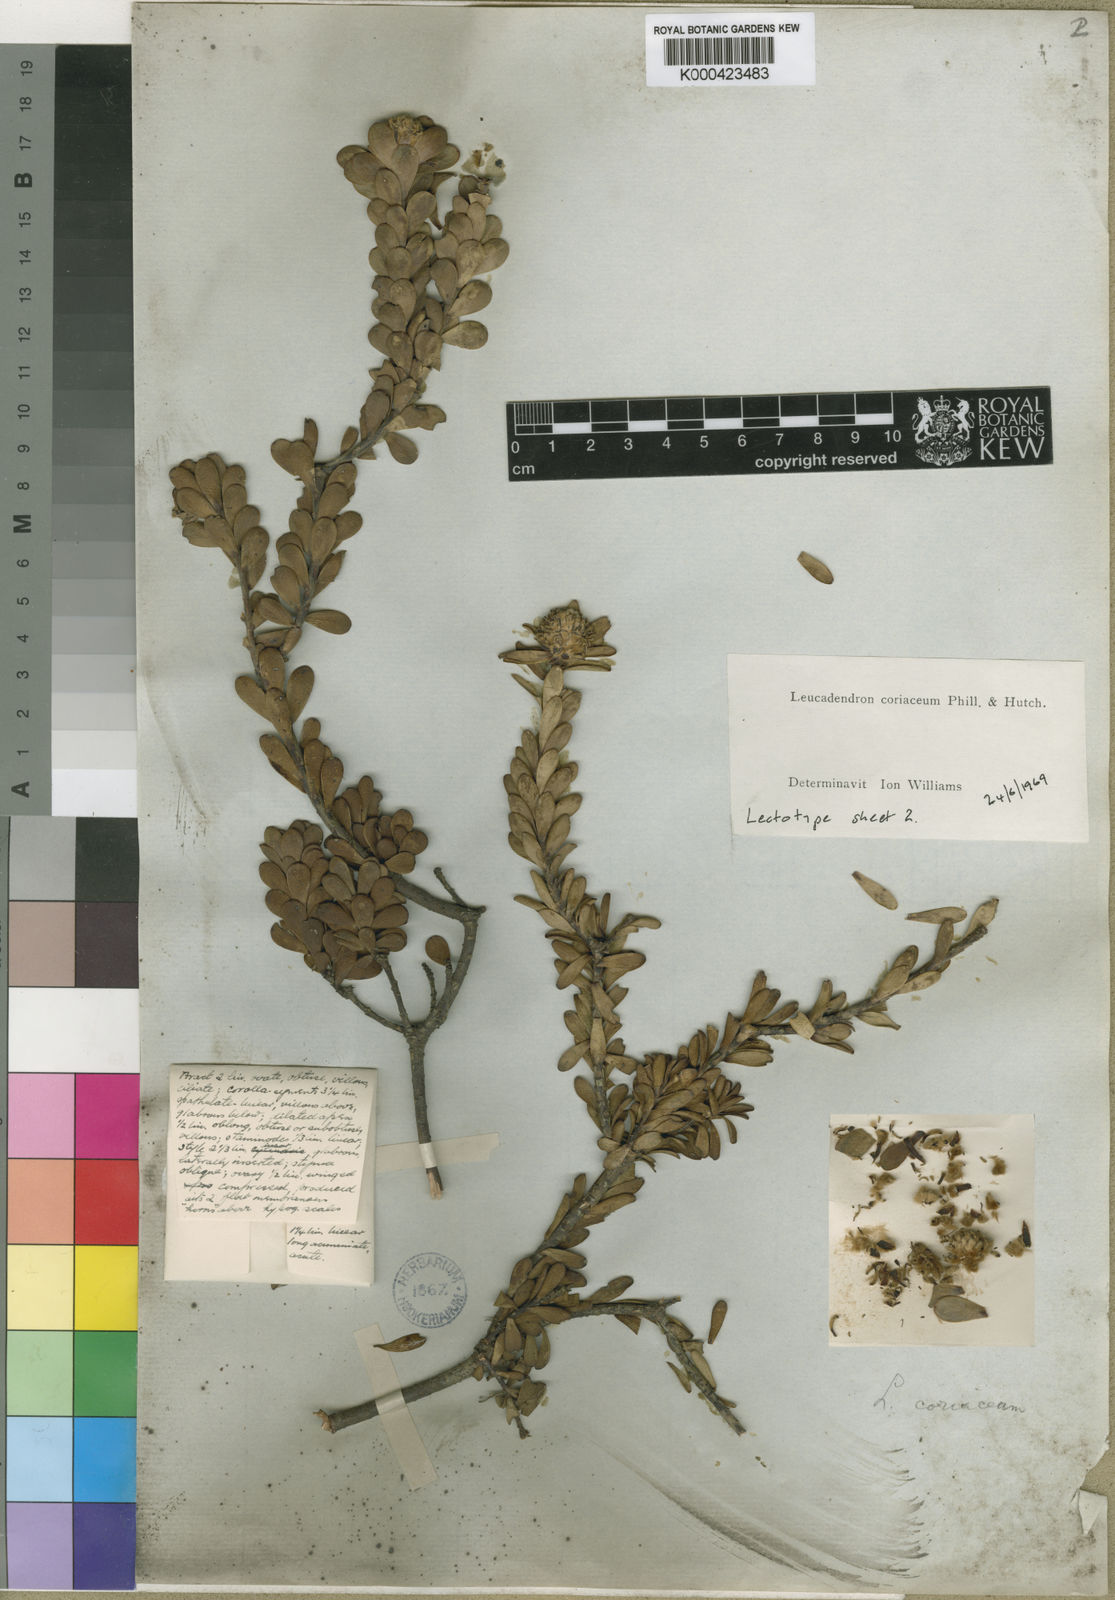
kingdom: Plantae
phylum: Tracheophyta
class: Magnoliopsida
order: Proteales
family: Proteaceae
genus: Leucadendron
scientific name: Leucadendron coriaceum
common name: Rosette conebush
